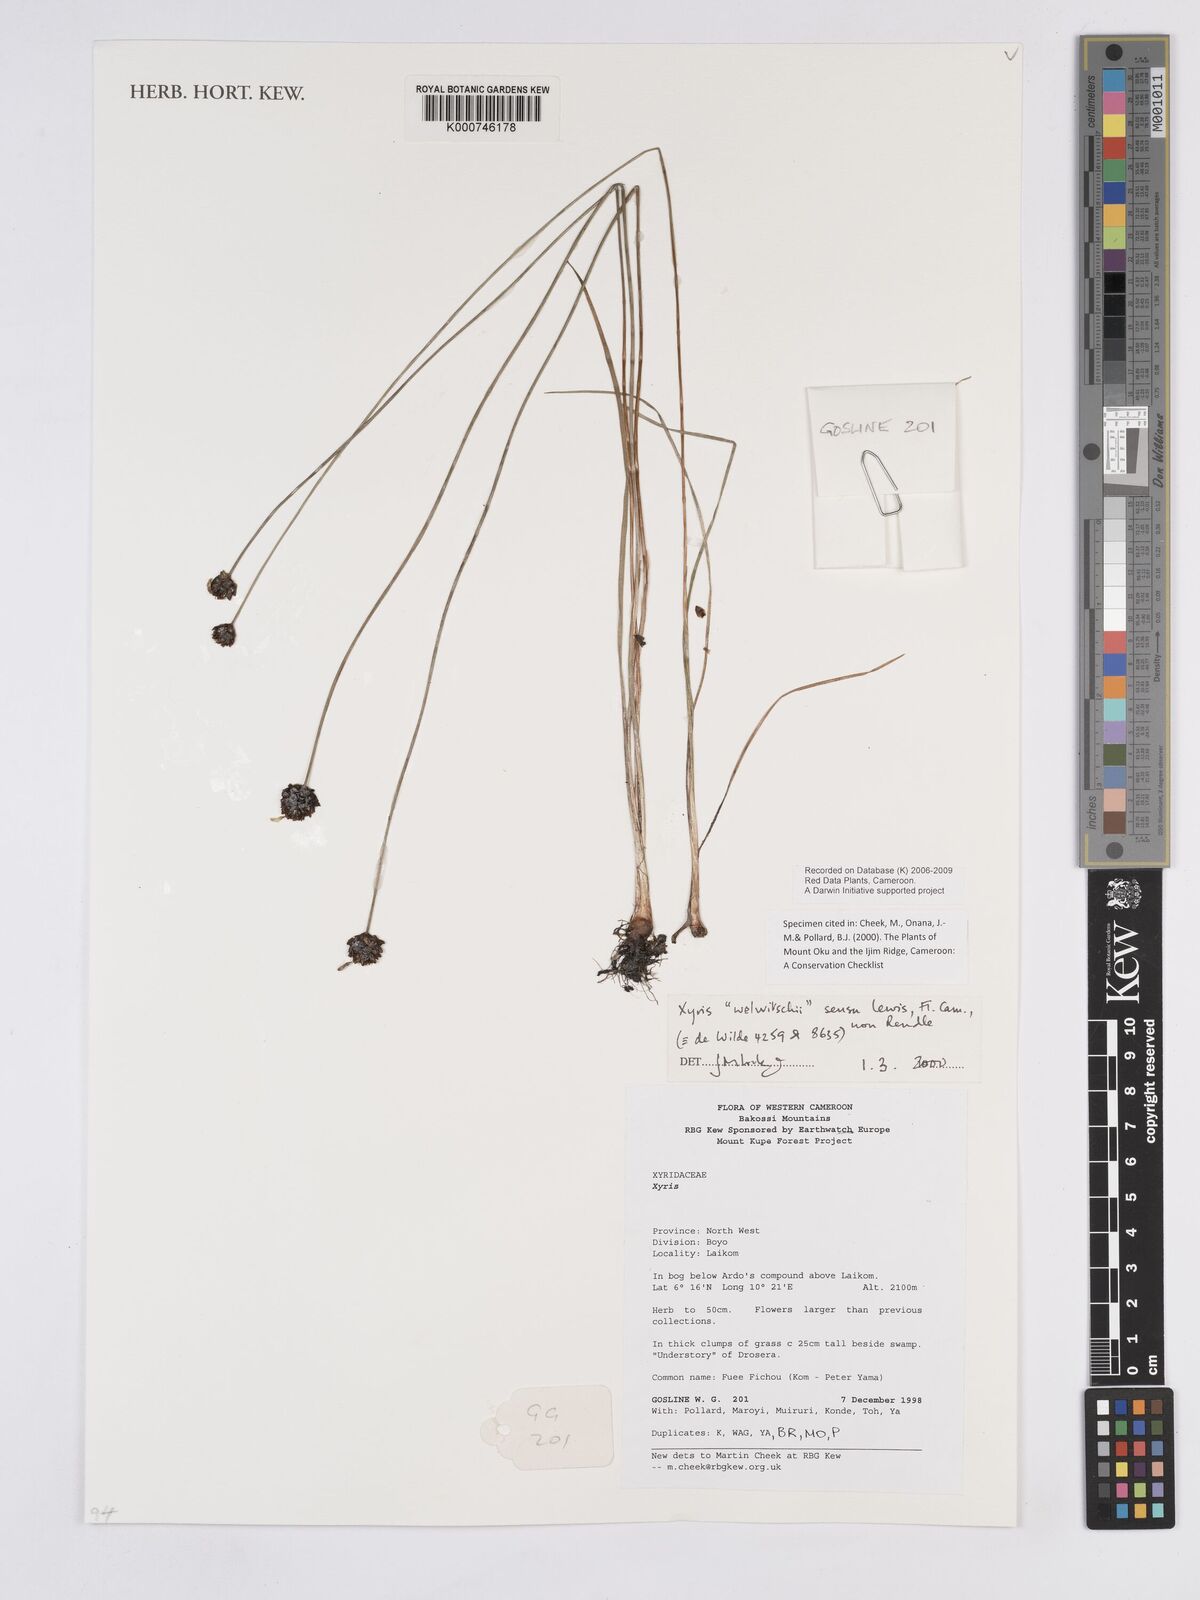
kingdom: Plantae
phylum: Tracheophyta
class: Liliopsida
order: Poales
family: Xyridaceae
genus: Xyris
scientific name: Xyris welwitschii
